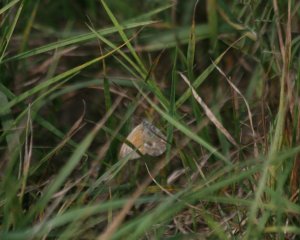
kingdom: Animalia
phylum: Arthropoda
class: Insecta
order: Lepidoptera
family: Nymphalidae
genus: Coenonympha
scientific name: Coenonympha tullia
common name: Large Heath
